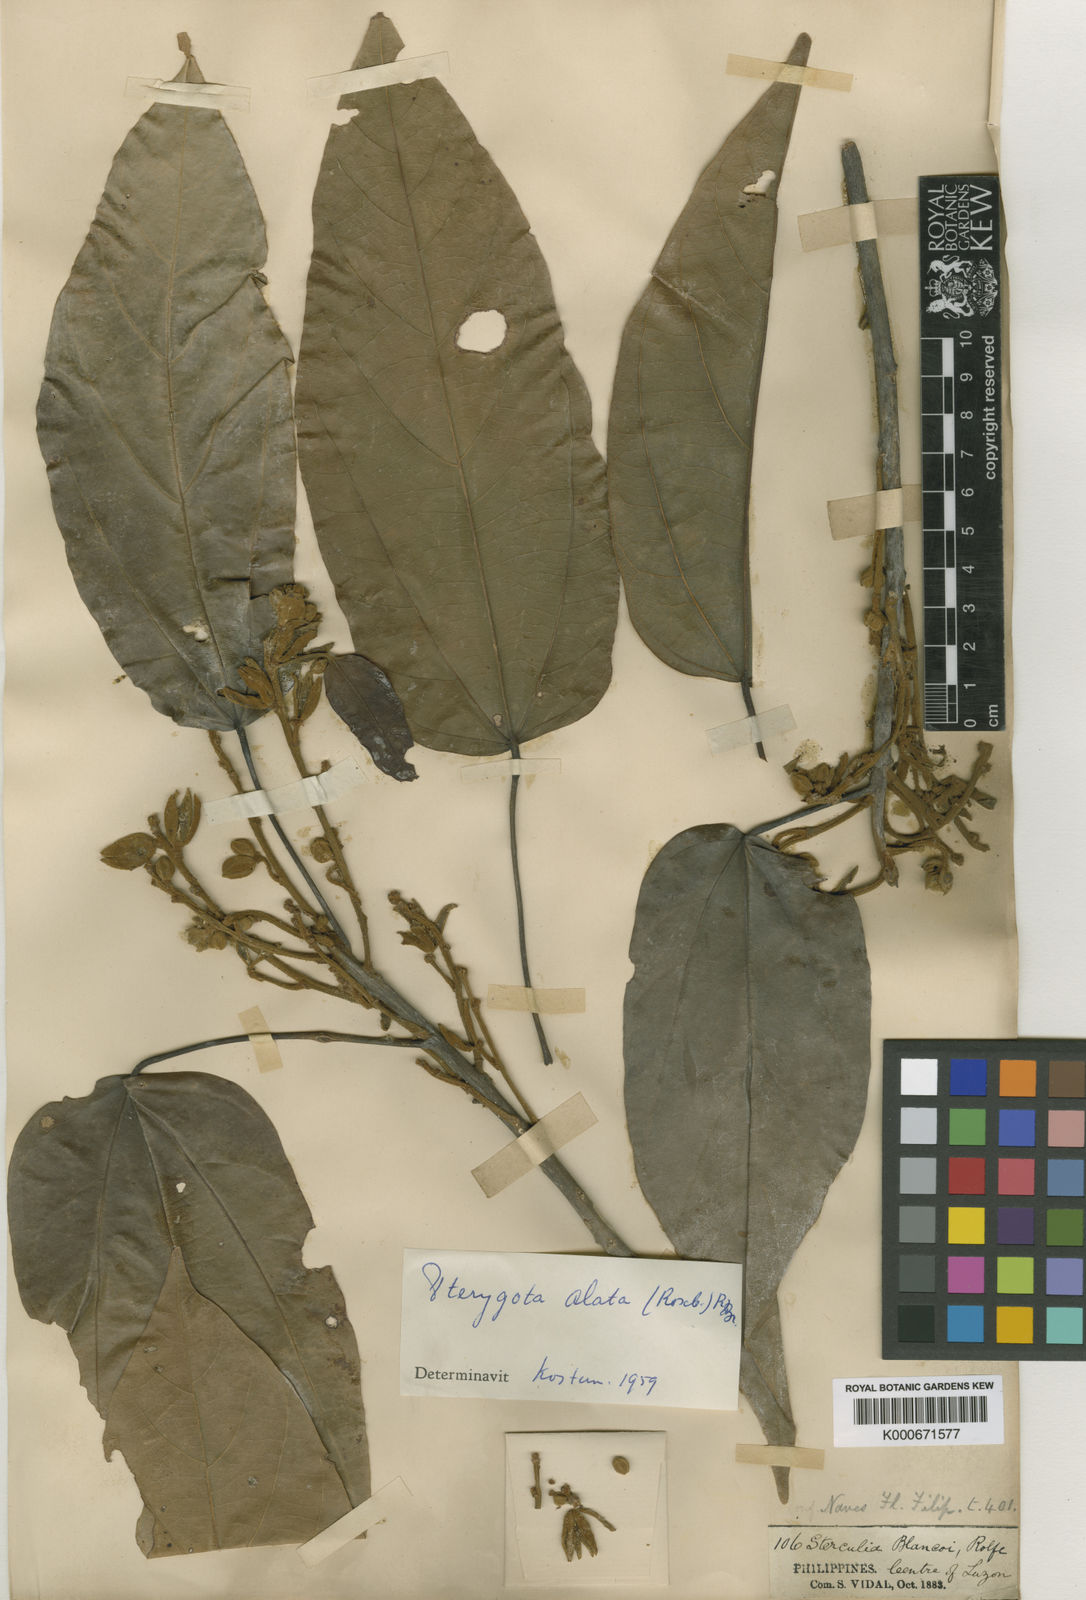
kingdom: Plantae
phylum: Tracheophyta
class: Magnoliopsida
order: Malvales
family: Malvaceae
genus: Pterygota
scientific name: Pterygota
